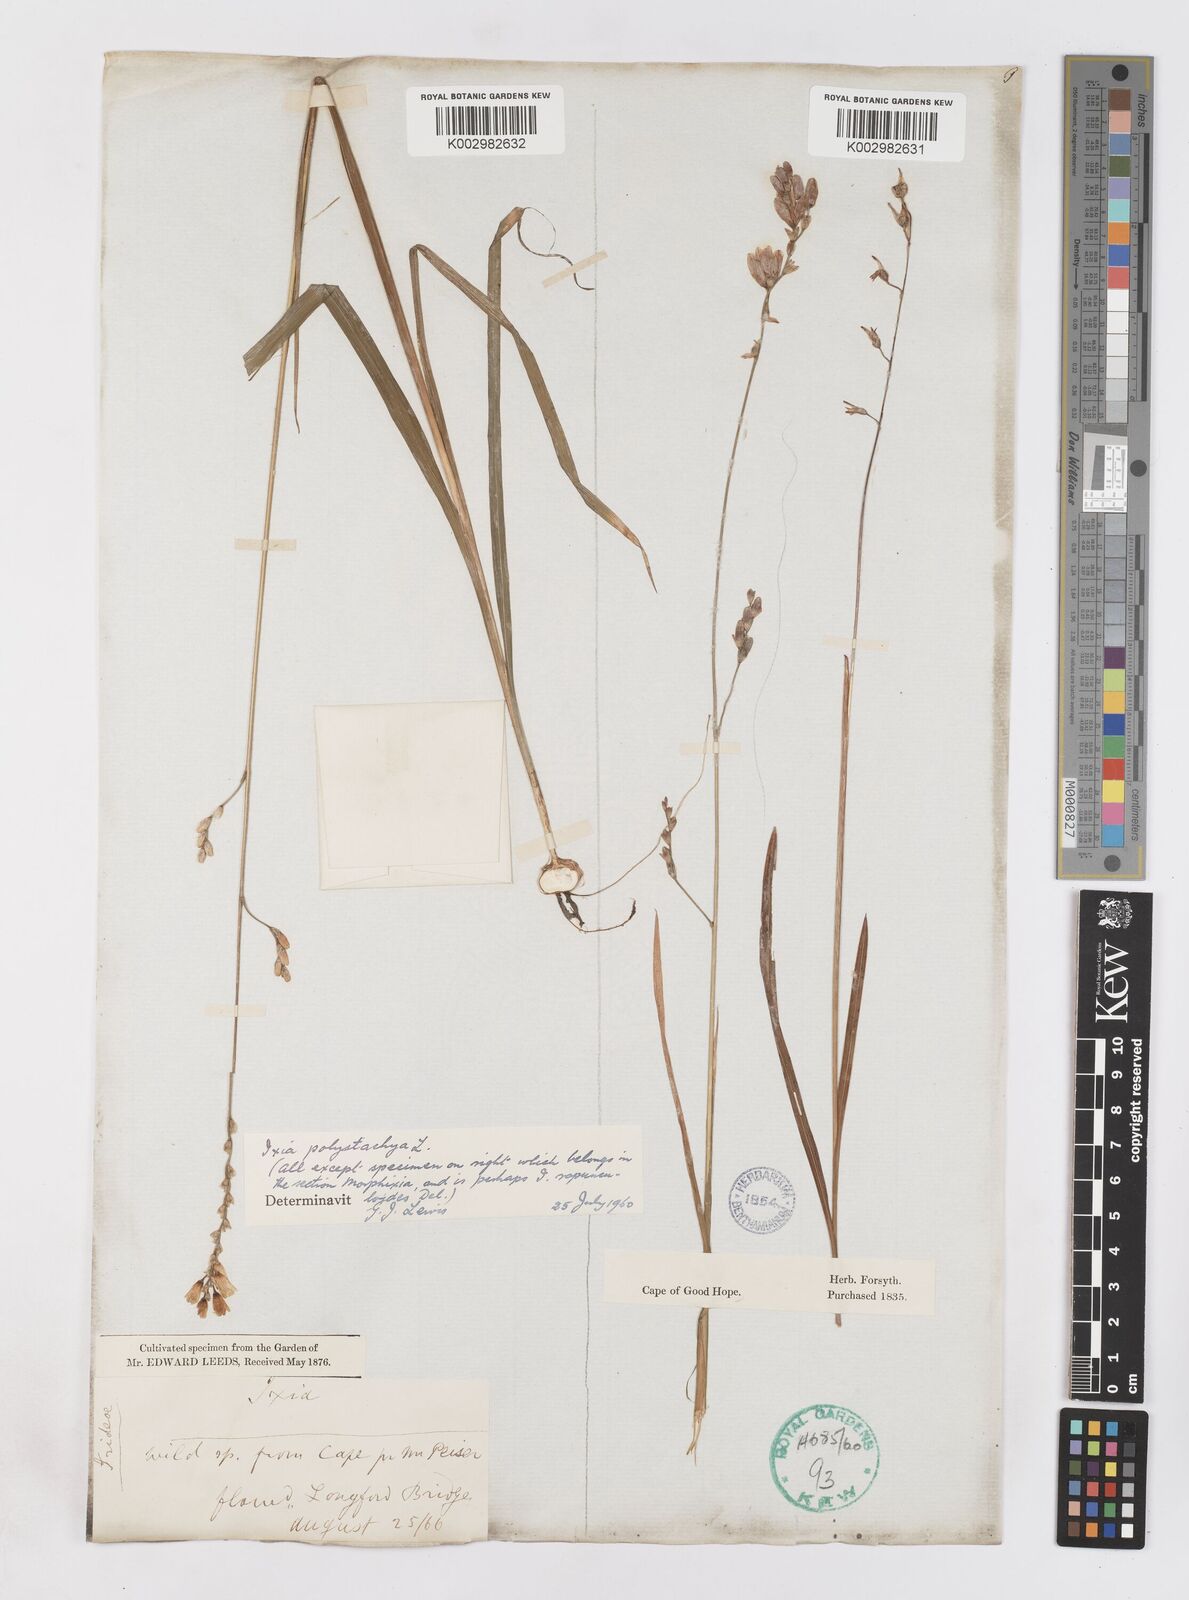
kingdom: Plantae
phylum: Tracheophyta
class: Liliopsida
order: Asparagales
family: Iridaceae
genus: Ixia
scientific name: Ixia polystachya
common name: White-and-yellow-flower cornlily
